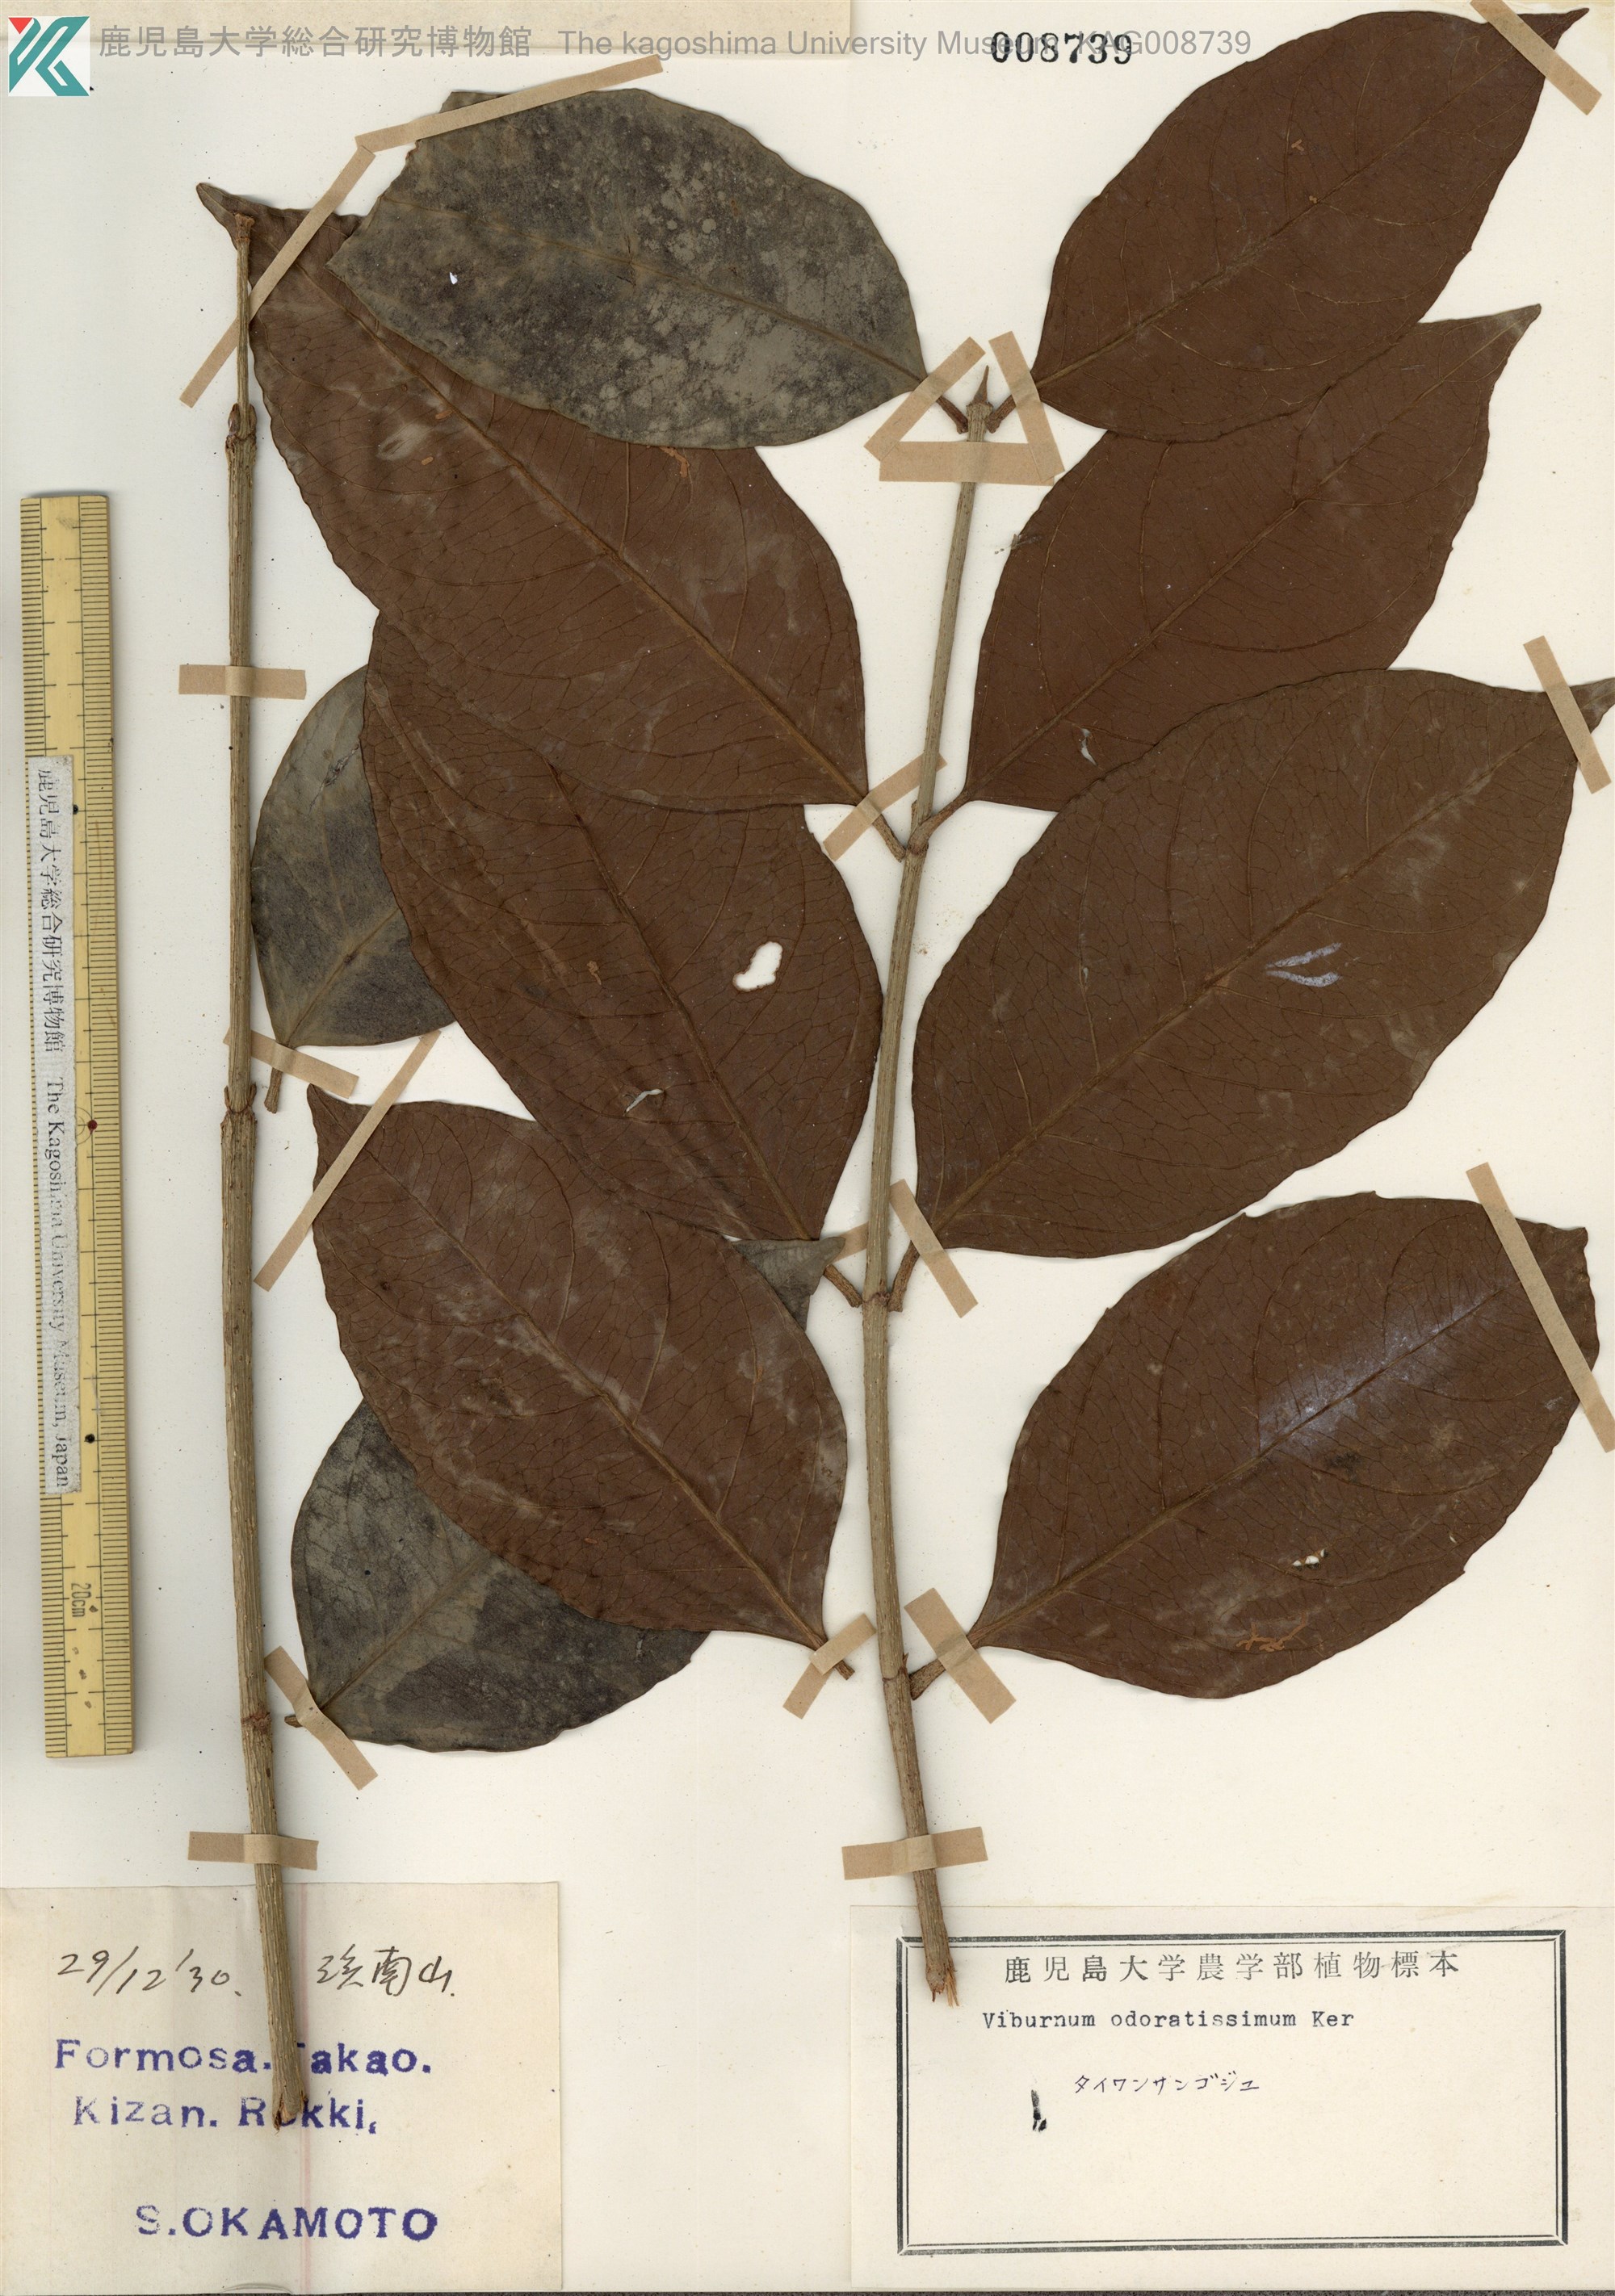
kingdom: Plantae
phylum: Tracheophyta
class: Magnoliopsida
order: Dipsacales
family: Viburnaceae
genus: Viburnum
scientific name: Viburnum odoratissimum
